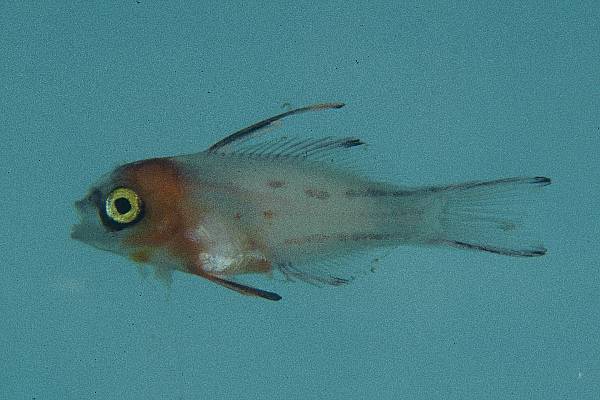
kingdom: Animalia
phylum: Chordata
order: Perciformes
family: Labridae
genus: Bodianus
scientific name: Bodianus anthioides
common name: Lyretail hogfish
